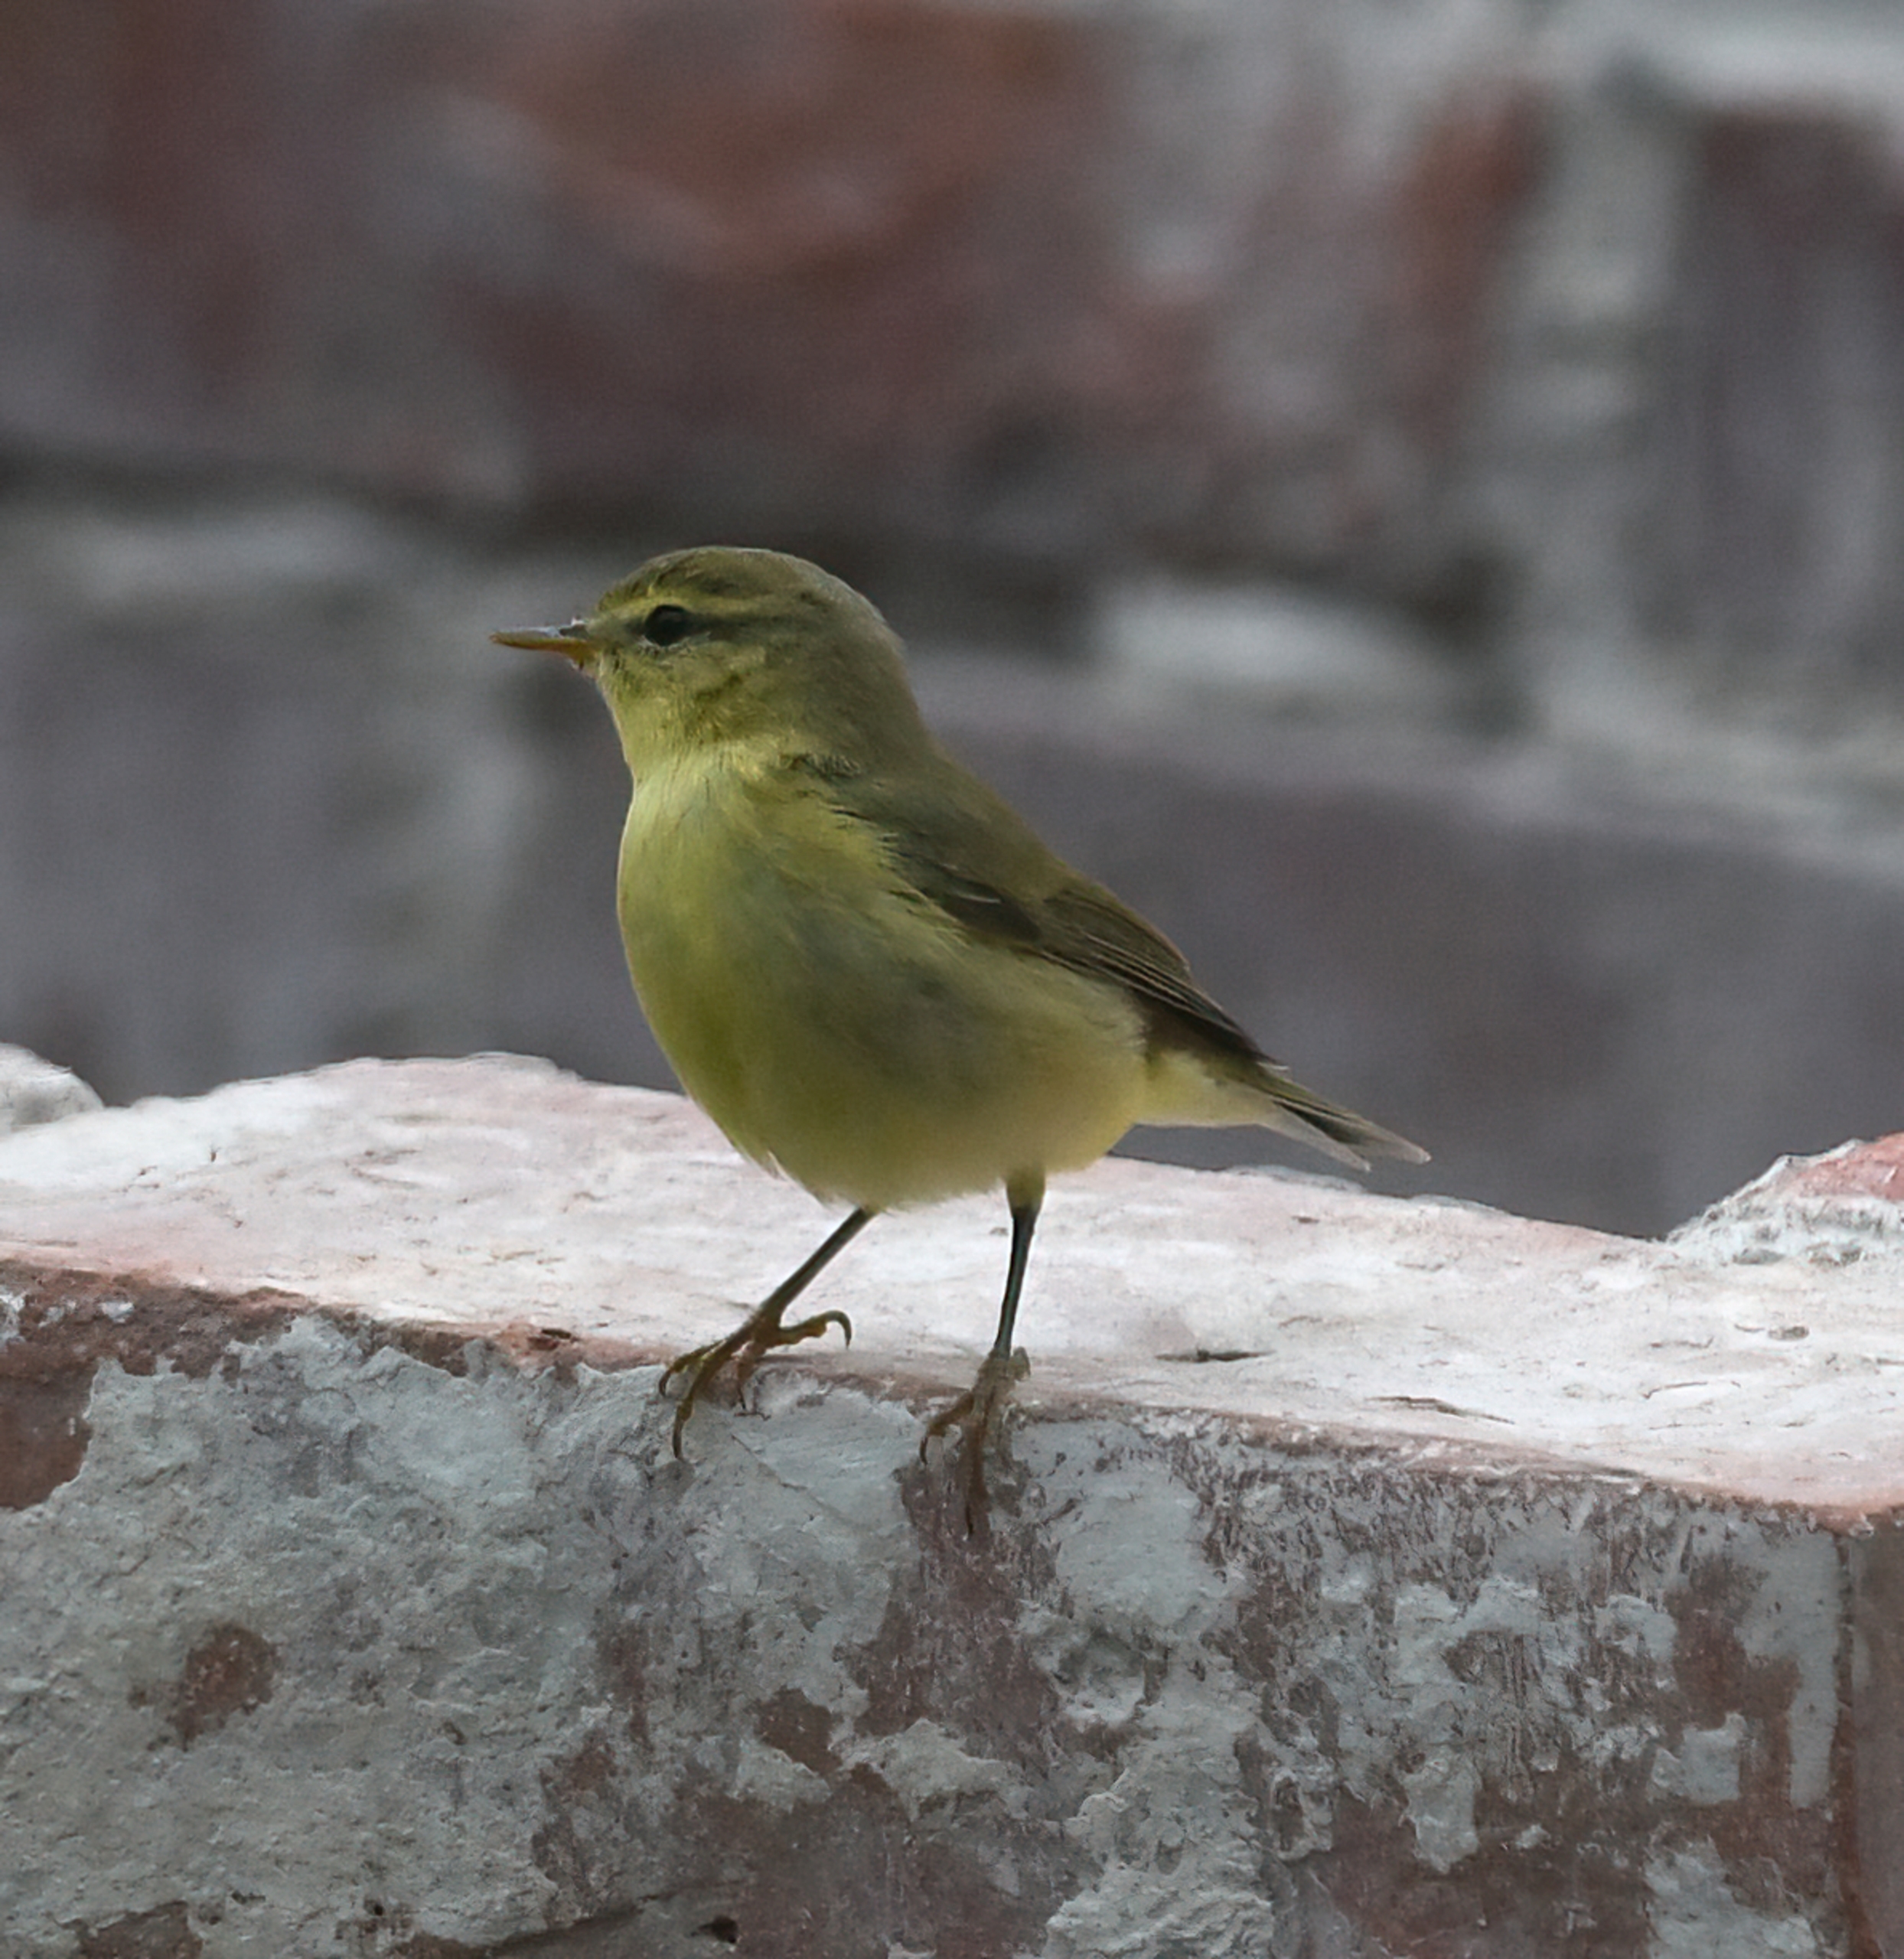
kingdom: Animalia
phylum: Chordata
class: Aves
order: Passeriformes
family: Phylloscopidae
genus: Phylloscopus
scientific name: Phylloscopus trochilus
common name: Løvsanger
